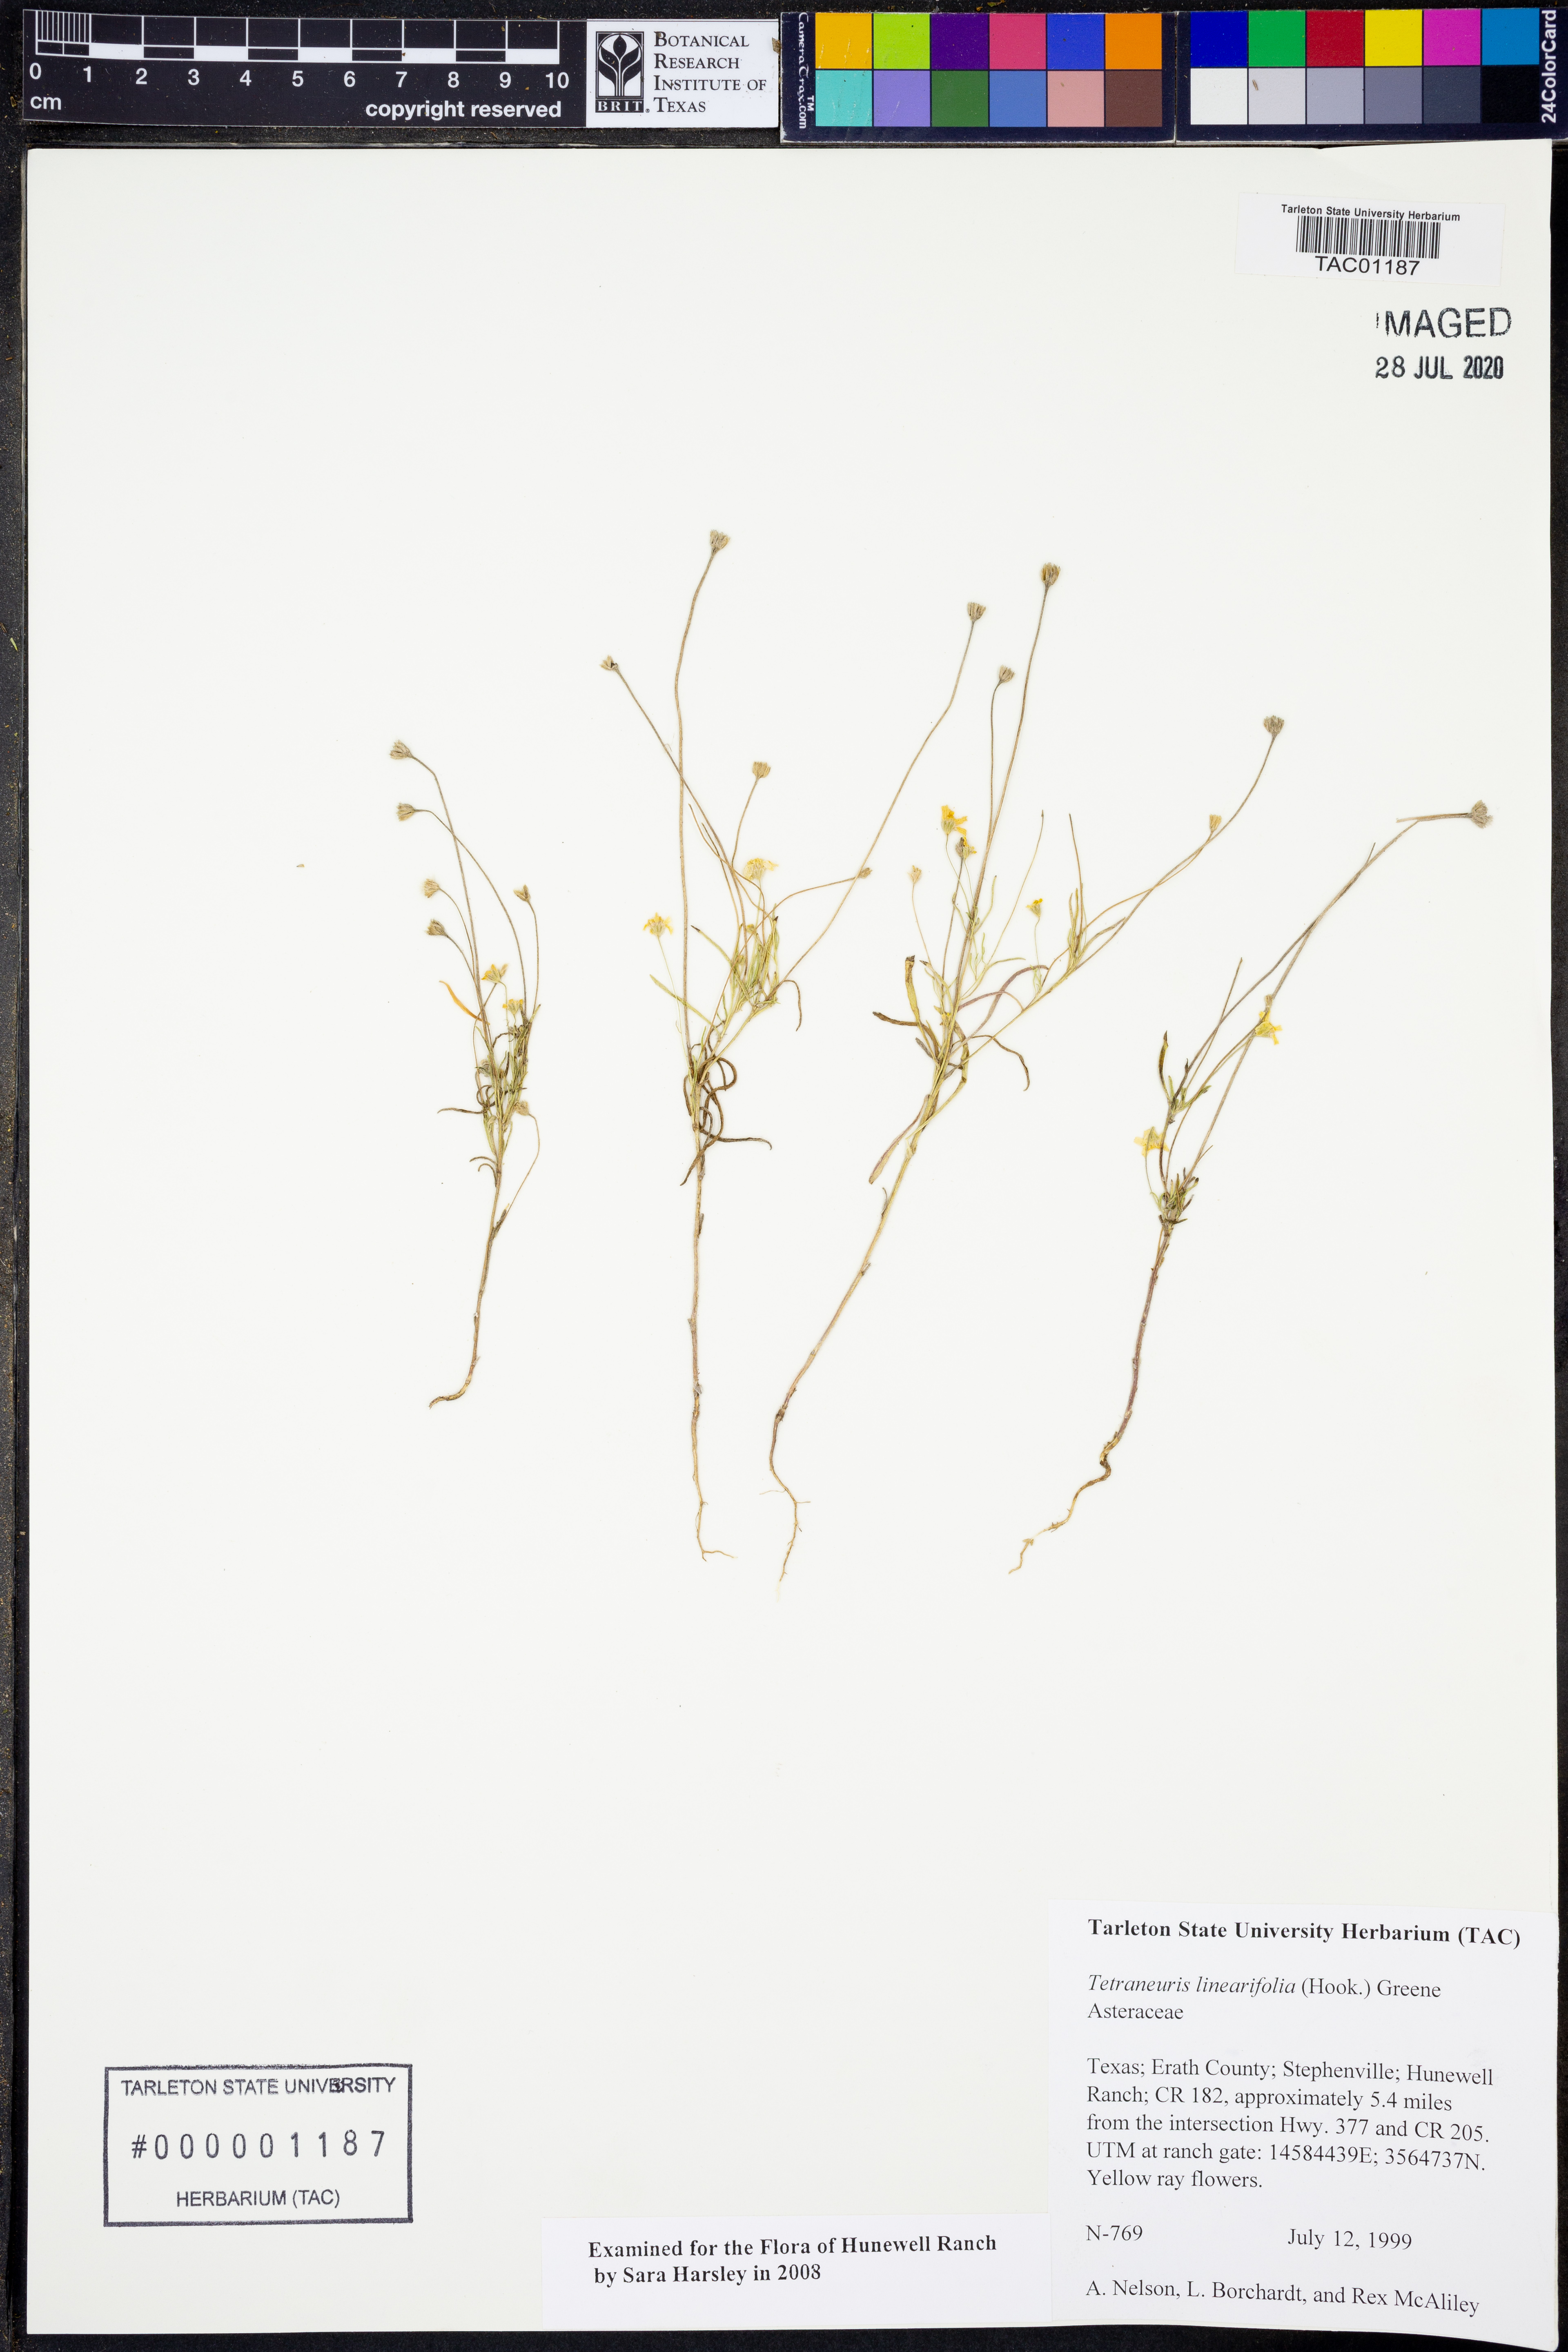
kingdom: Plantae
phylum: Tracheophyta
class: Magnoliopsida
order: Asterales
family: Asteraceae
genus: Tetraneuris
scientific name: Tetraneuris linearifolia
